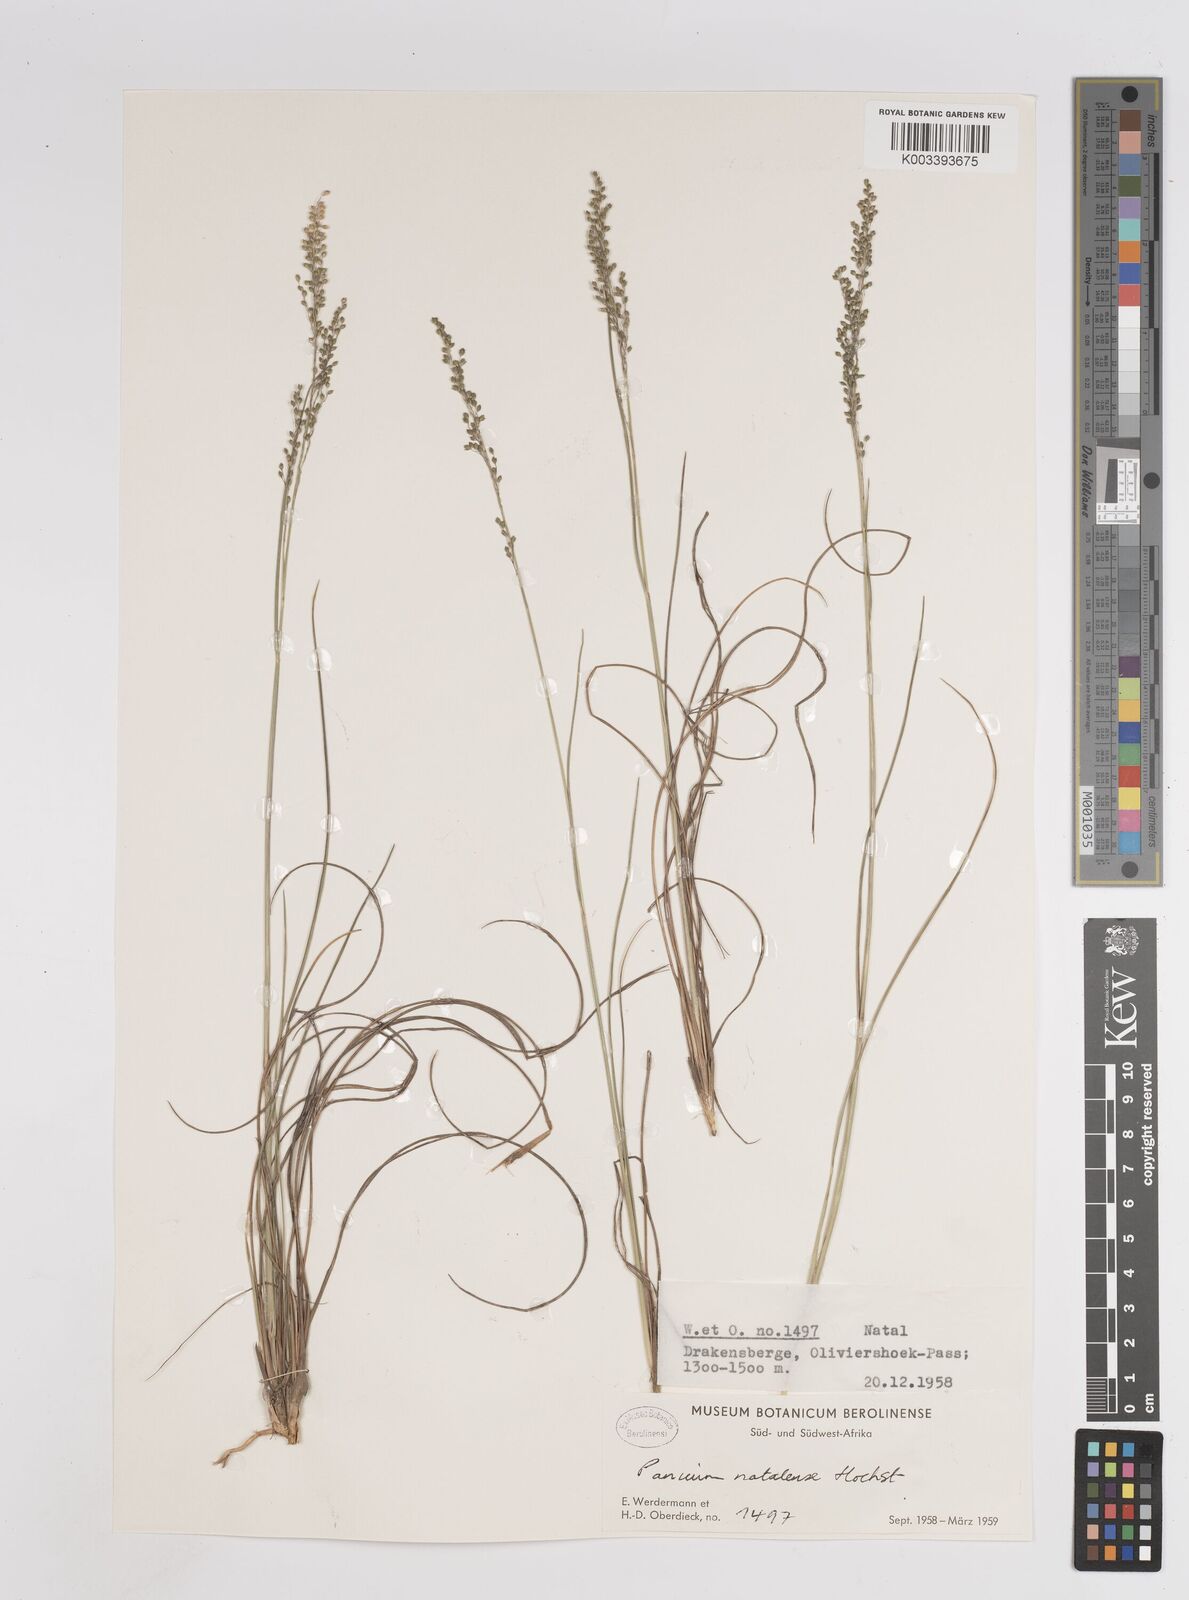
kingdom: Plantae
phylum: Tracheophyta
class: Liliopsida
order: Poales
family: Poaceae
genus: Trichanthecium
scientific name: Trichanthecium natalense
